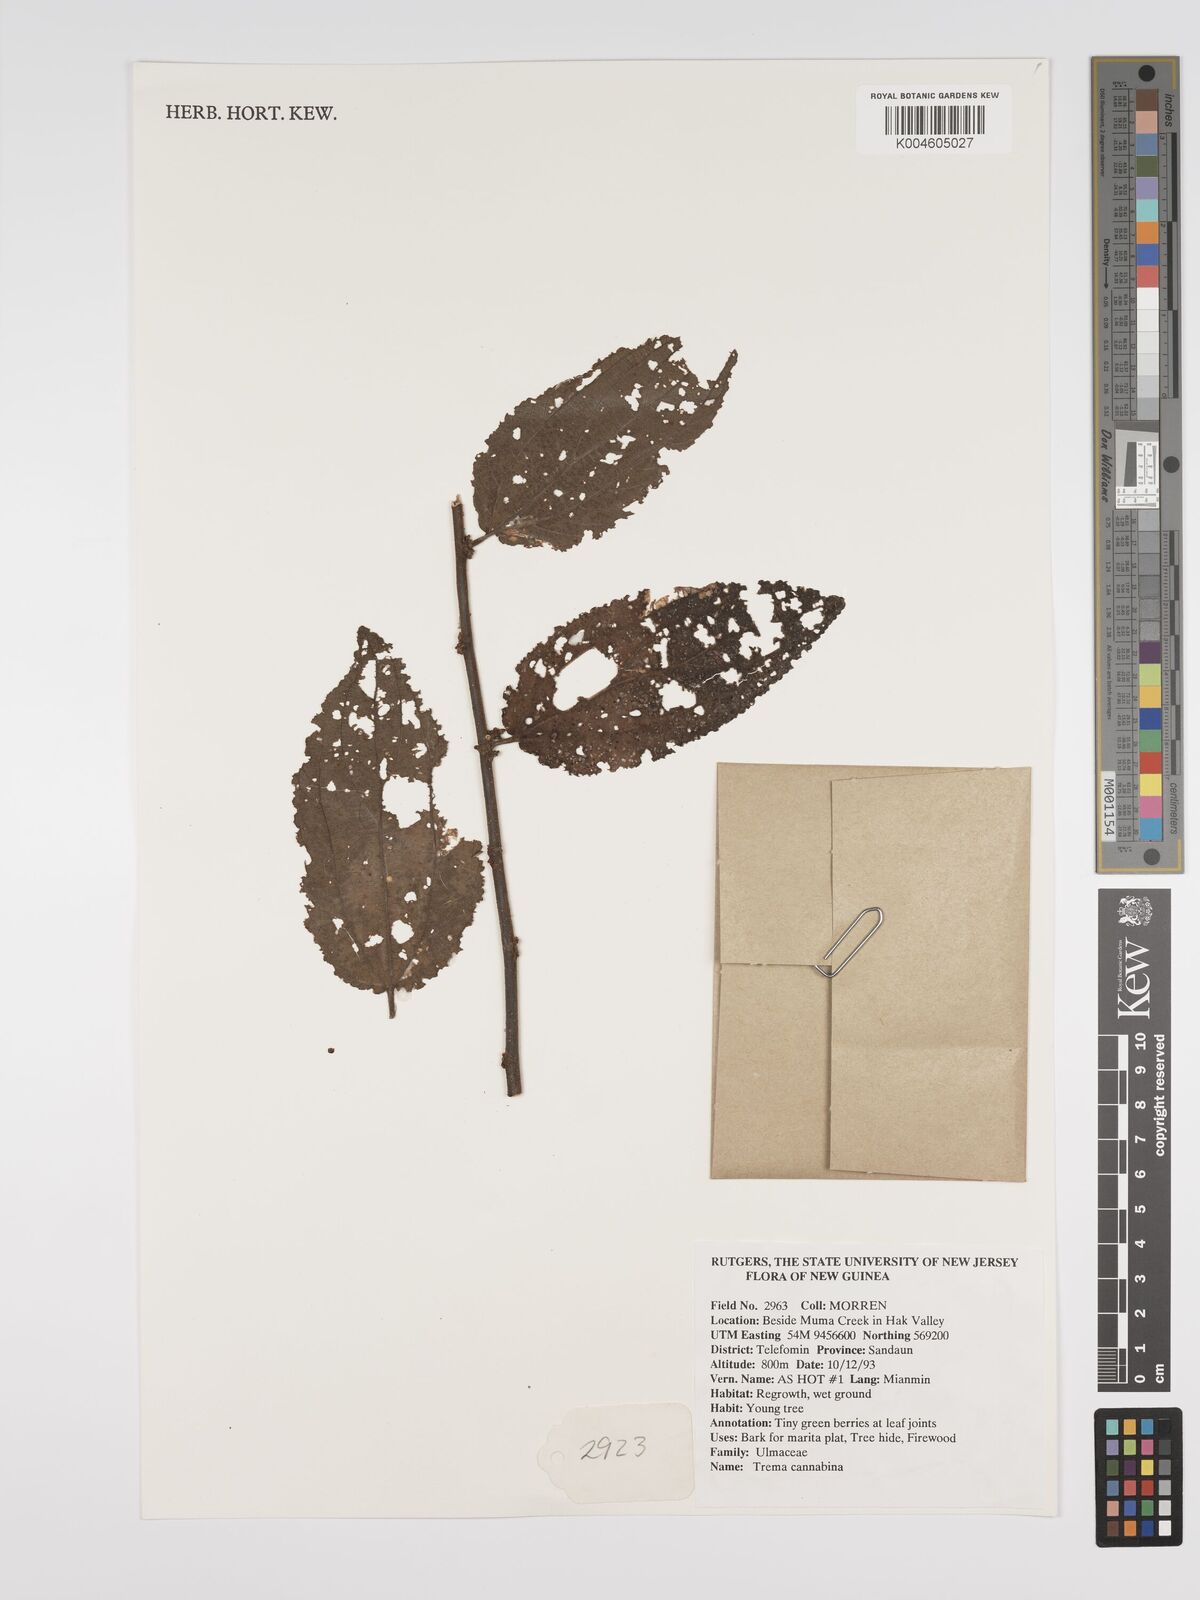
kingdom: Plantae
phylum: Tracheophyta
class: Magnoliopsida
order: Rosales
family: Cannabaceae
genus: Trema
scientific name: Trema
